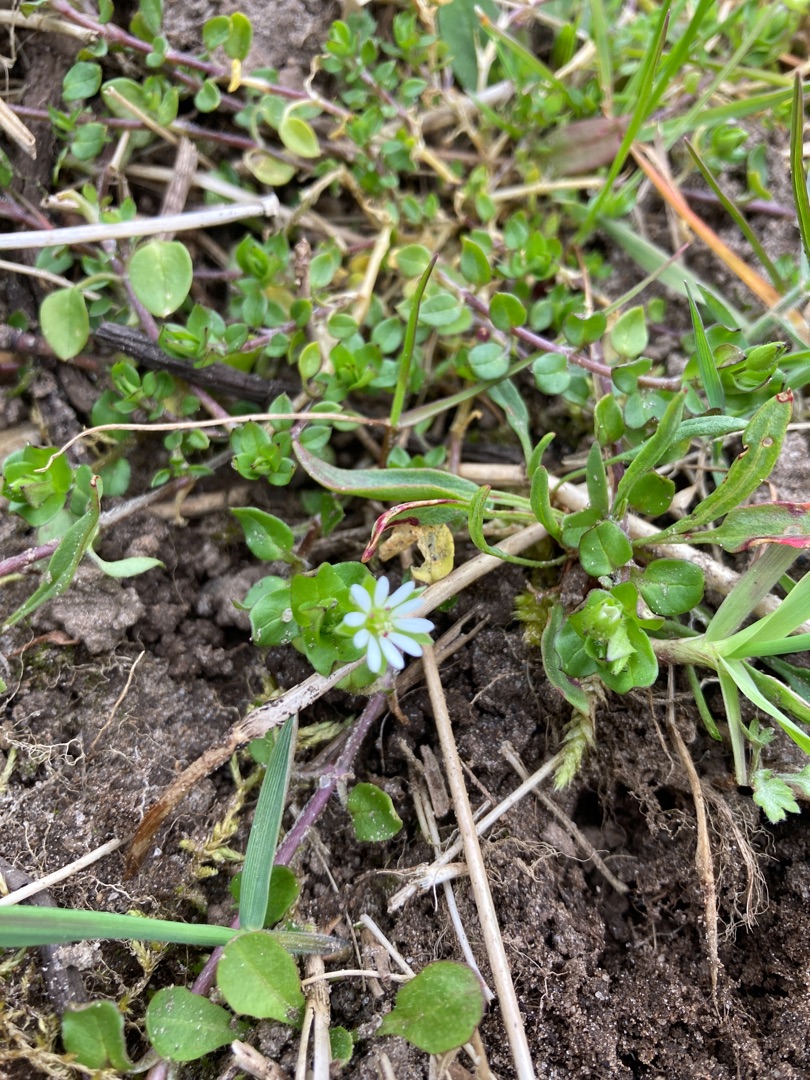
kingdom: Plantae
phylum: Tracheophyta
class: Magnoliopsida
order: Caryophyllales
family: Caryophyllaceae
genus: Stellaria
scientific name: Stellaria media
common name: Almindelig fuglegræs
